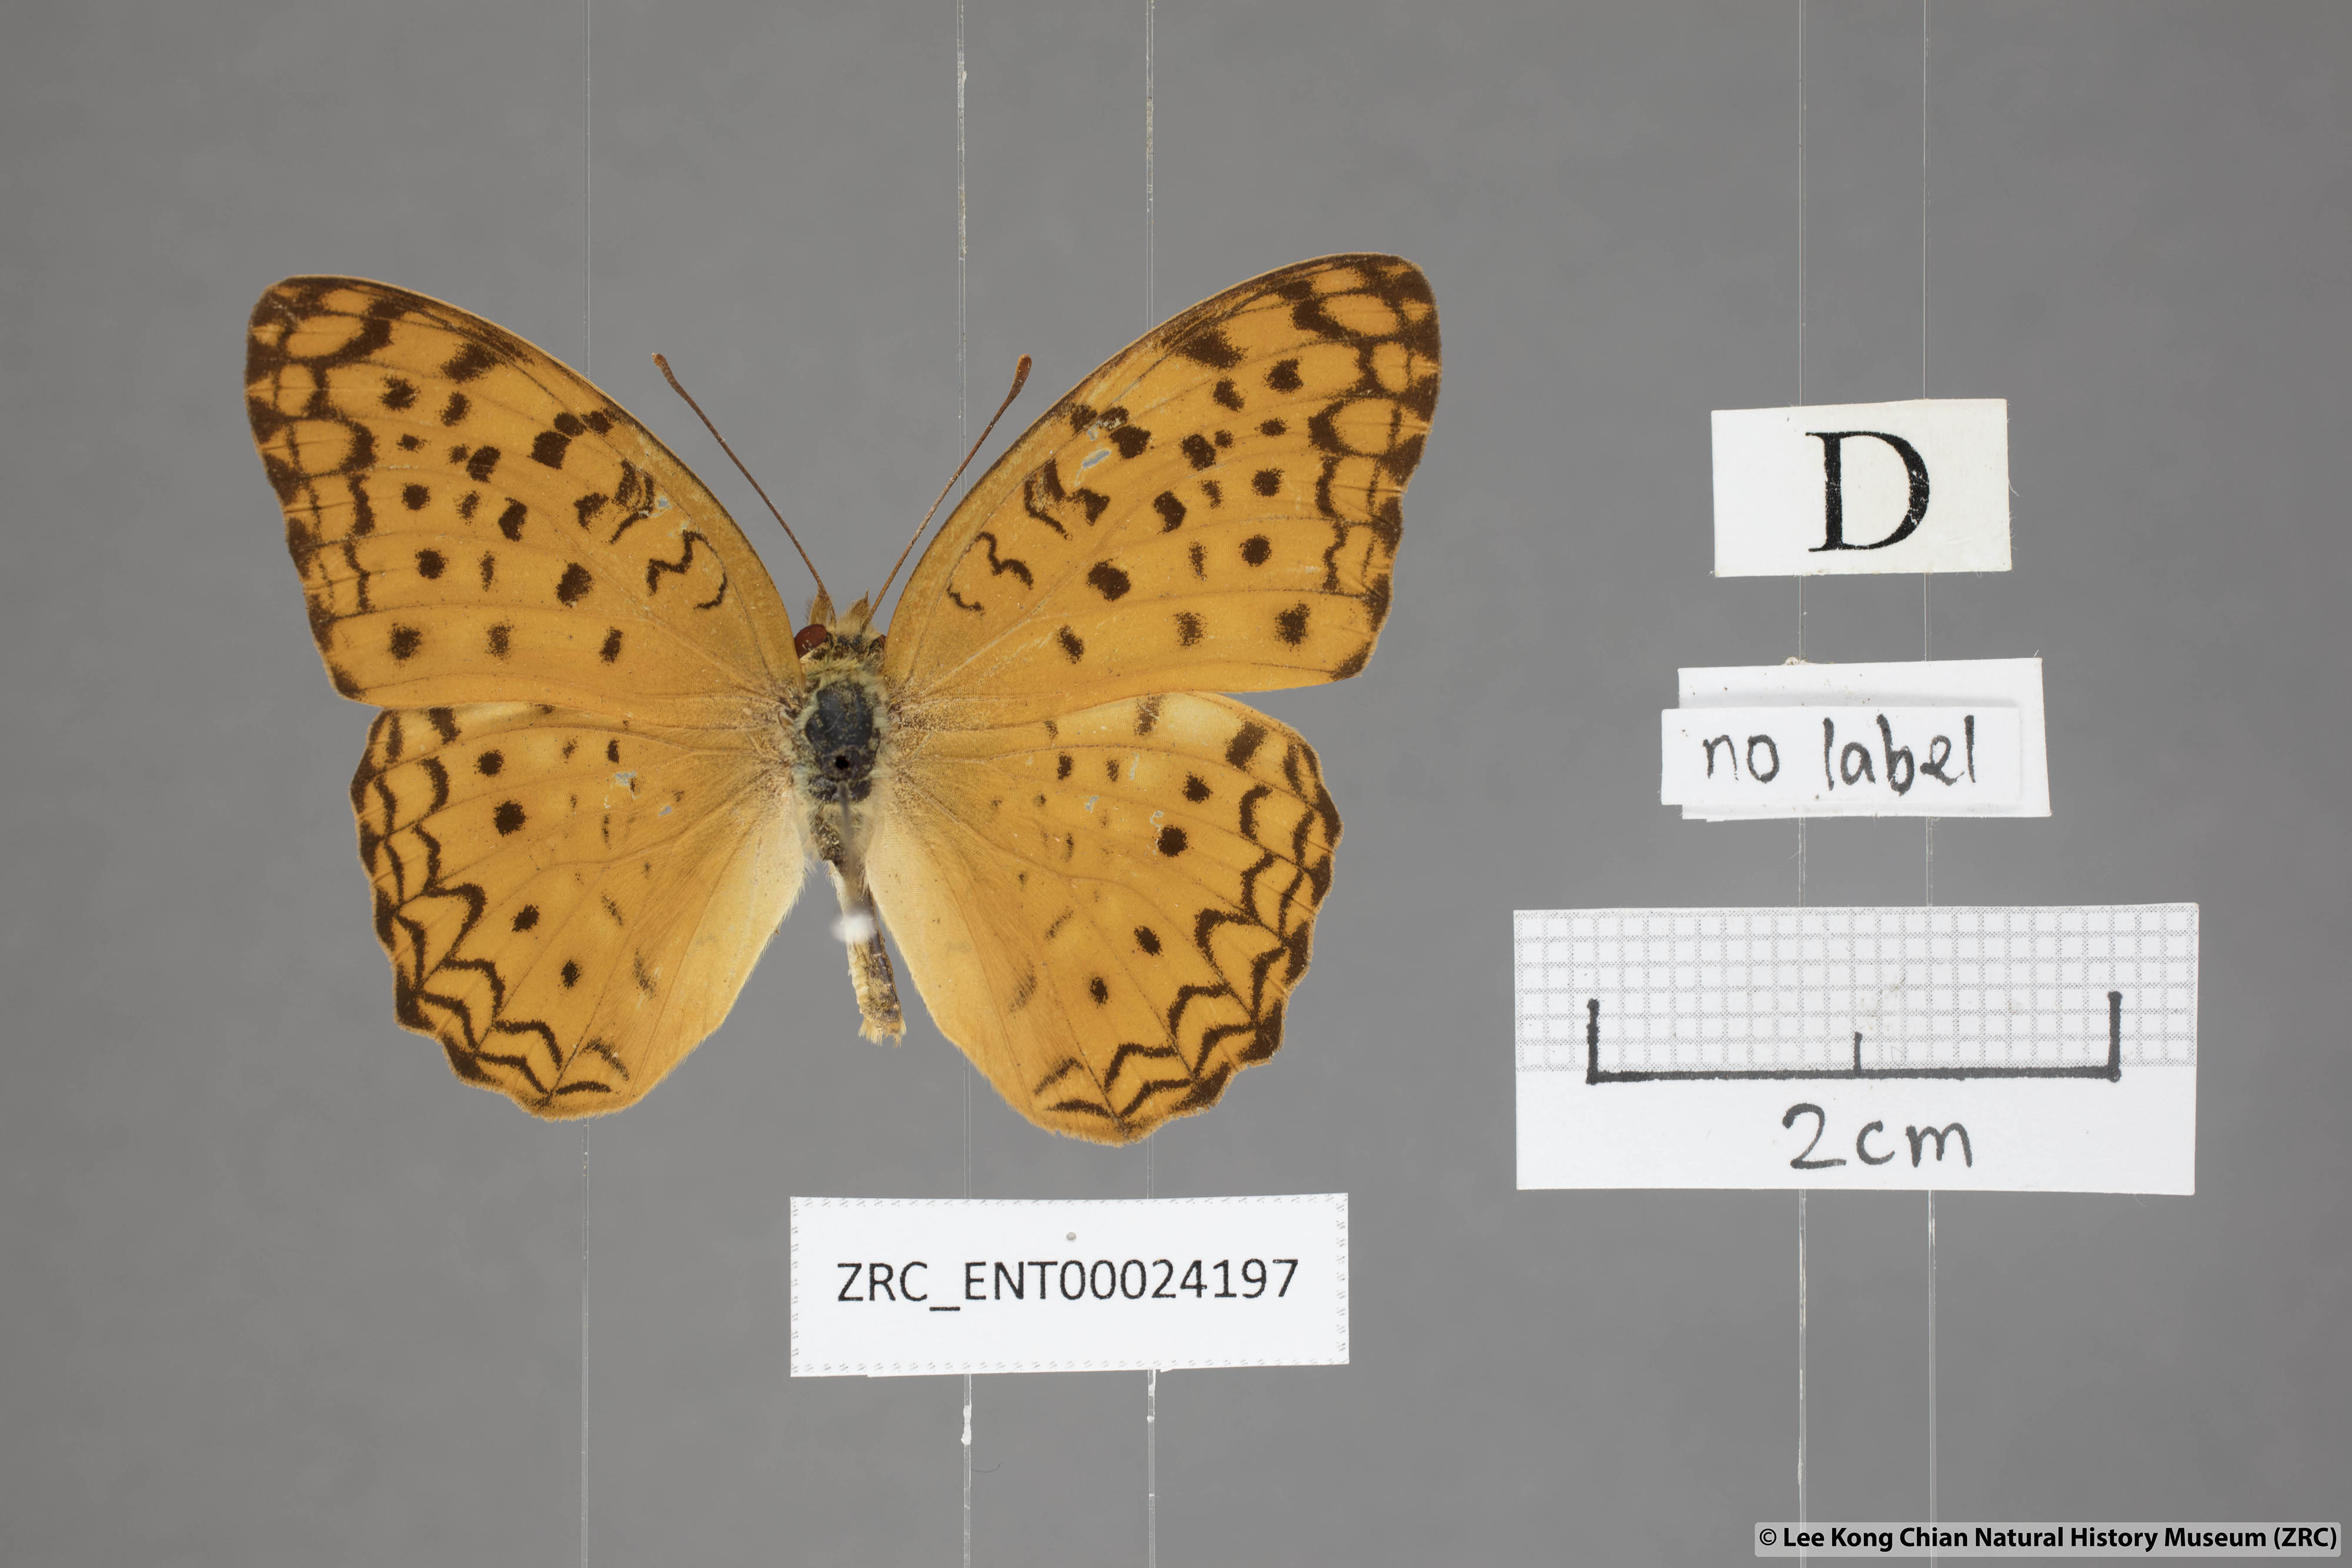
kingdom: Animalia
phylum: Arthropoda
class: Insecta
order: Lepidoptera
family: Nymphalidae
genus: Phalanta
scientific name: Phalanta phalantha
